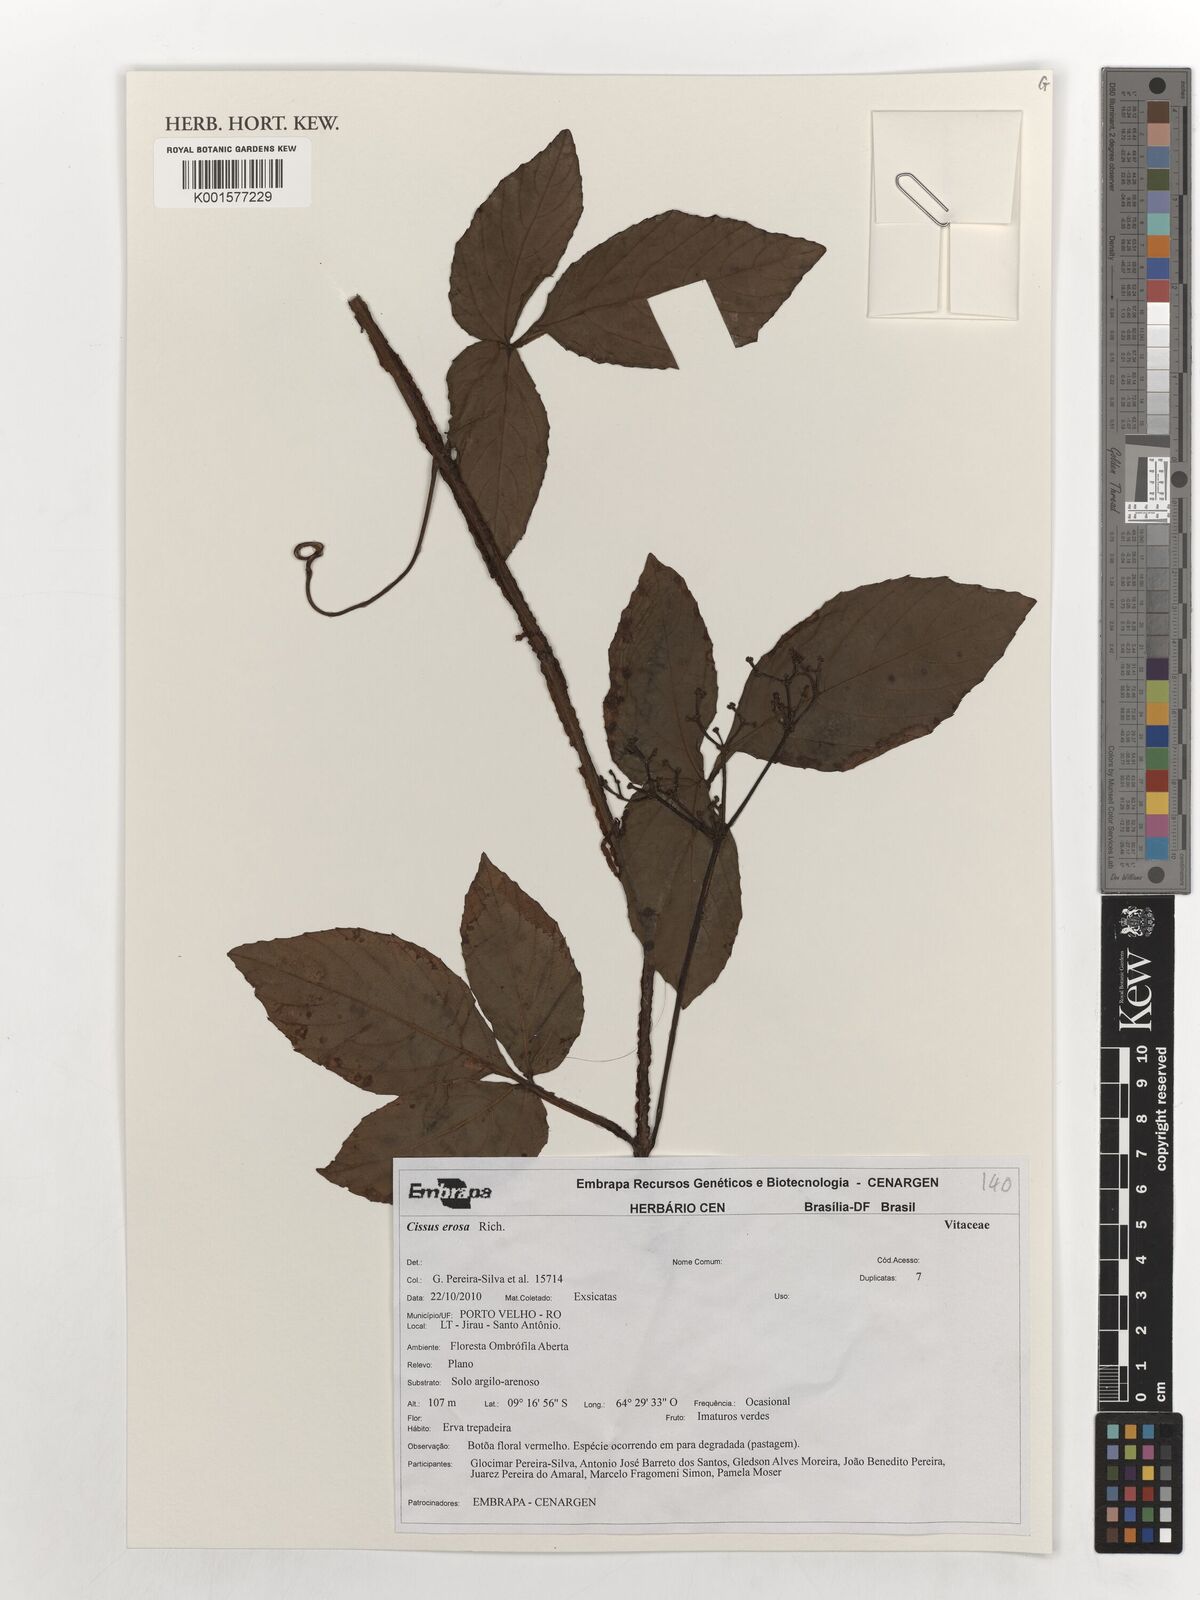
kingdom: Plantae
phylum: Tracheophyta
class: Magnoliopsida
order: Vitales
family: Vitaceae
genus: Cissus
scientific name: Cissus erosa
